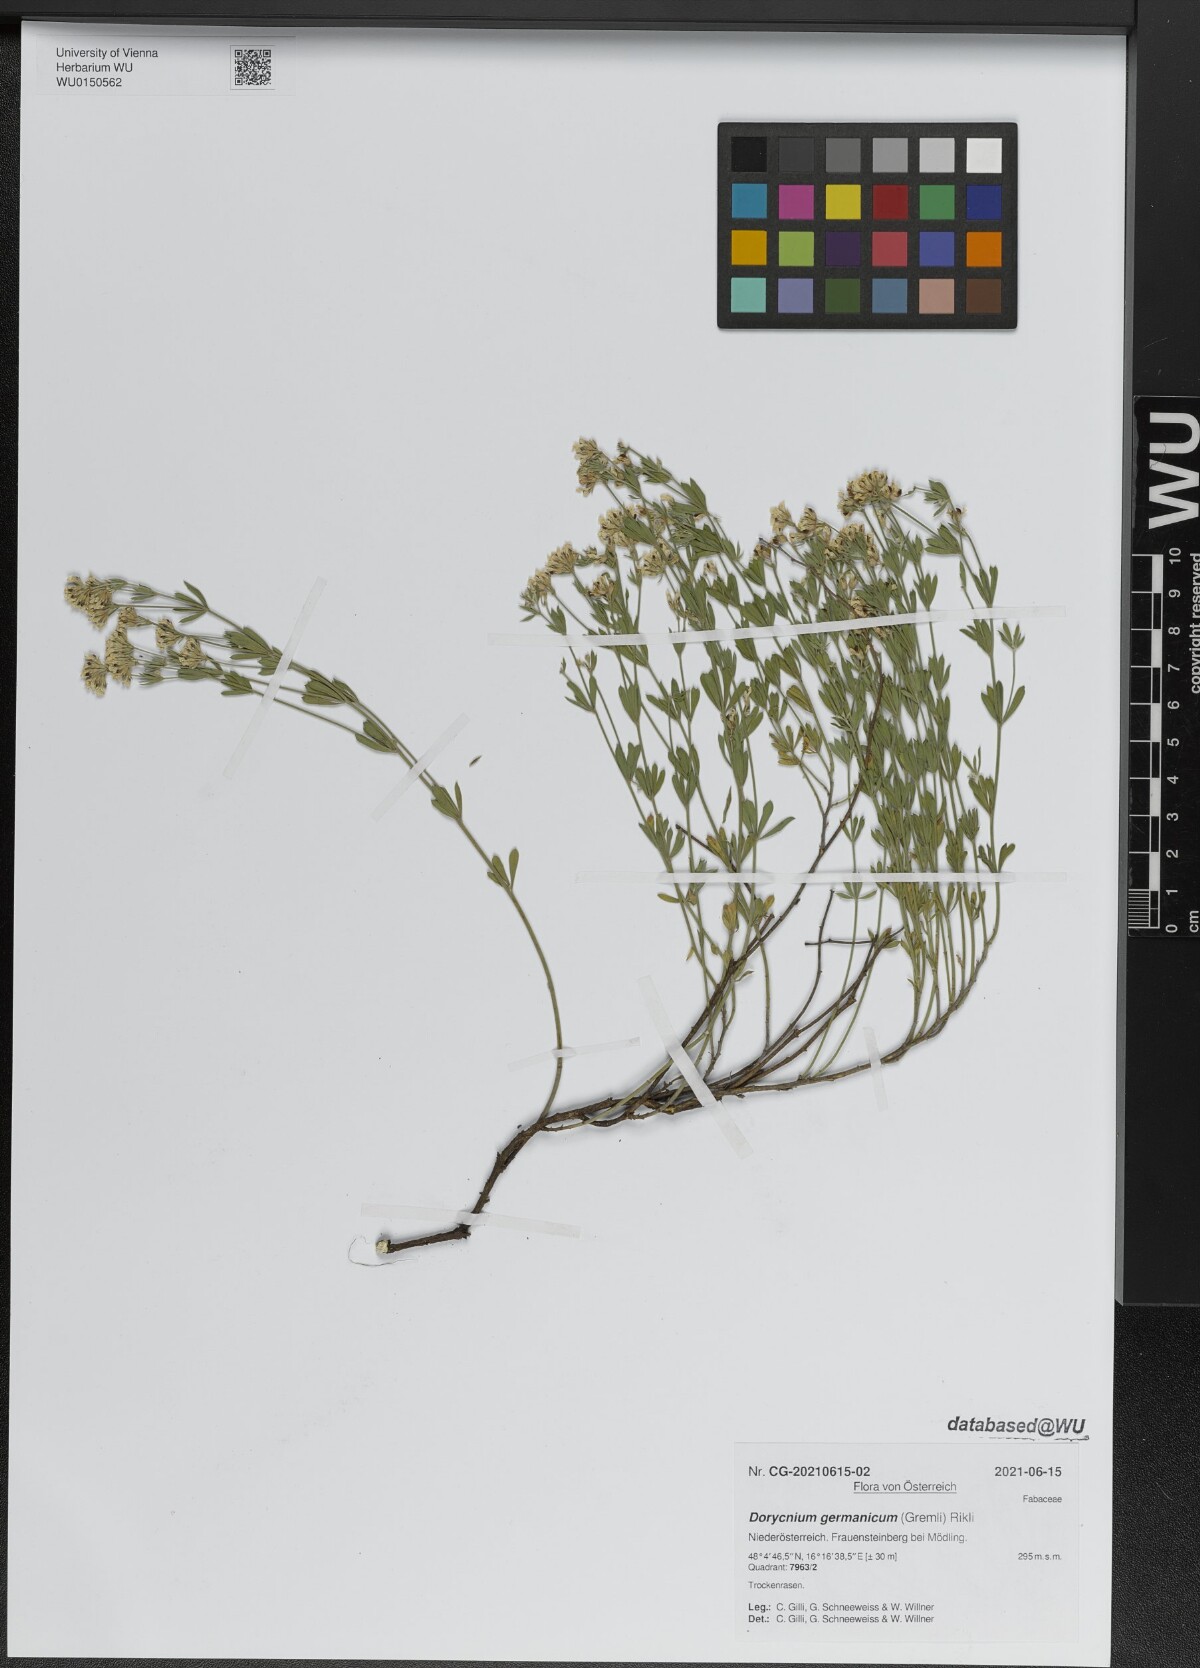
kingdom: Plantae
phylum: Tracheophyta
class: Magnoliopsida
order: Fabales
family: Fabaceae
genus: Lotus
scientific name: Lotus germanicus
